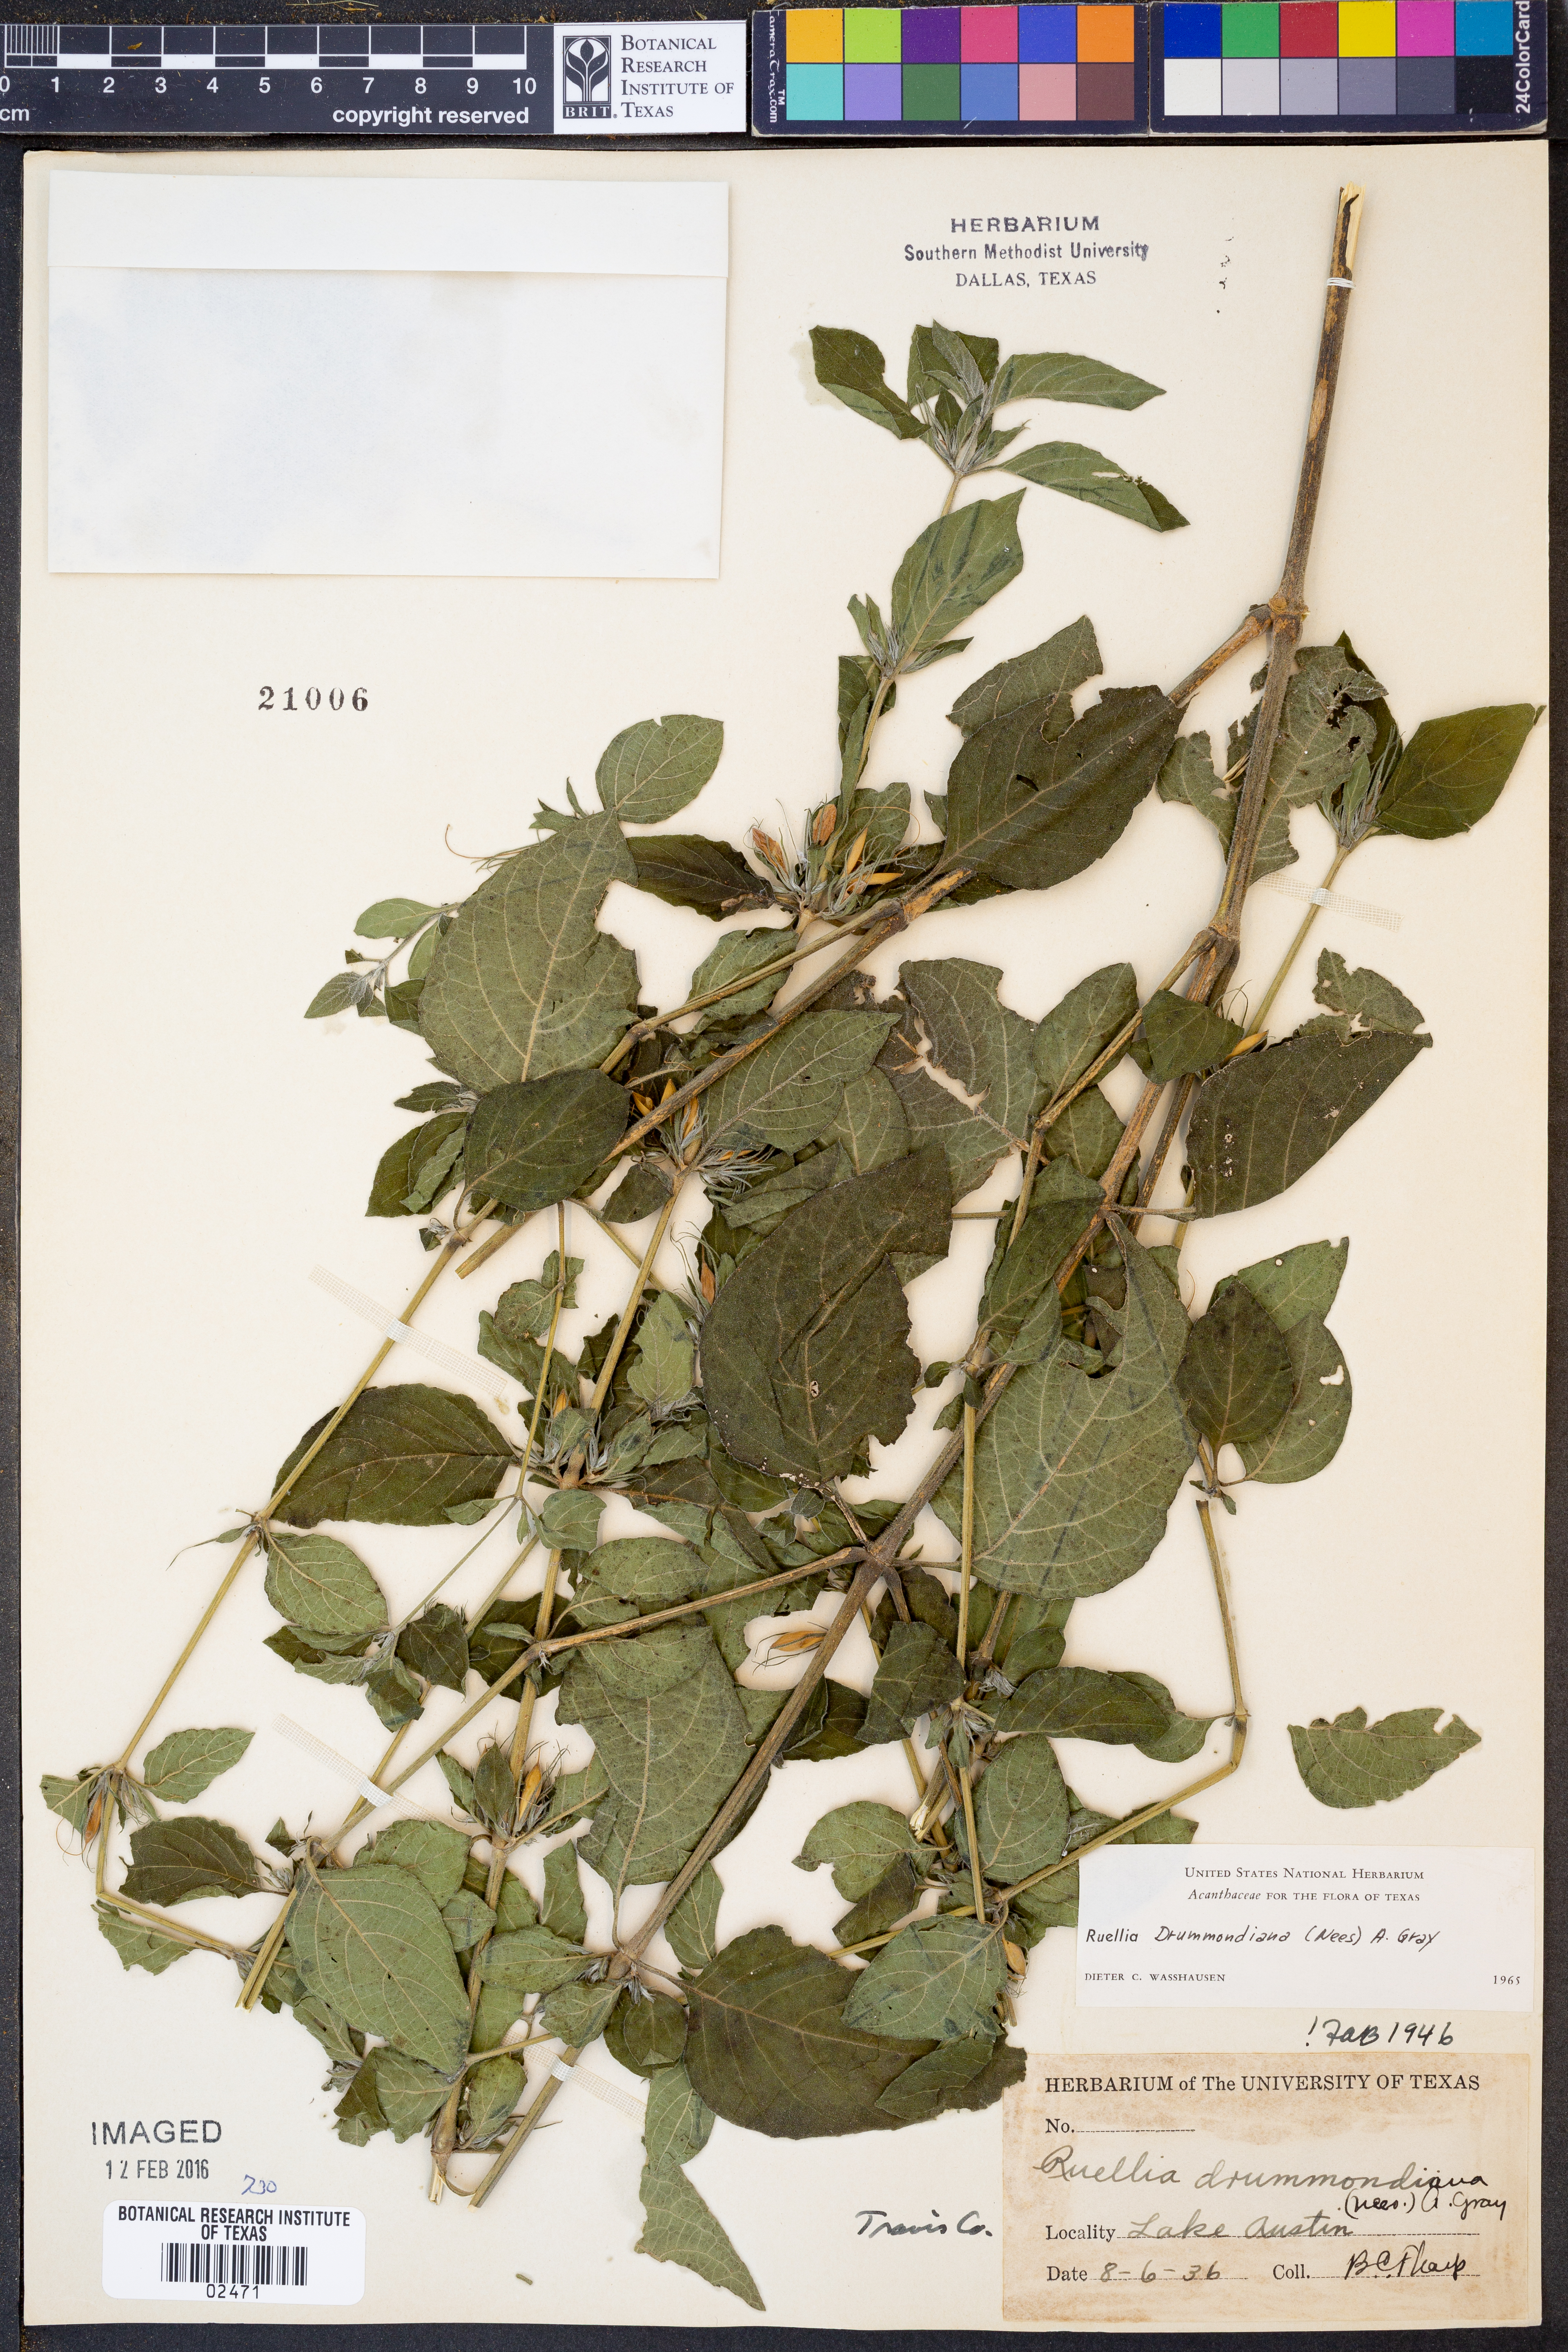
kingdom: Plantae
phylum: Tracheophyta
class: Magnoliopsida
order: Lamiales
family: Acanthaceae
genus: Ruellia
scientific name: Ruellia drummondiana
